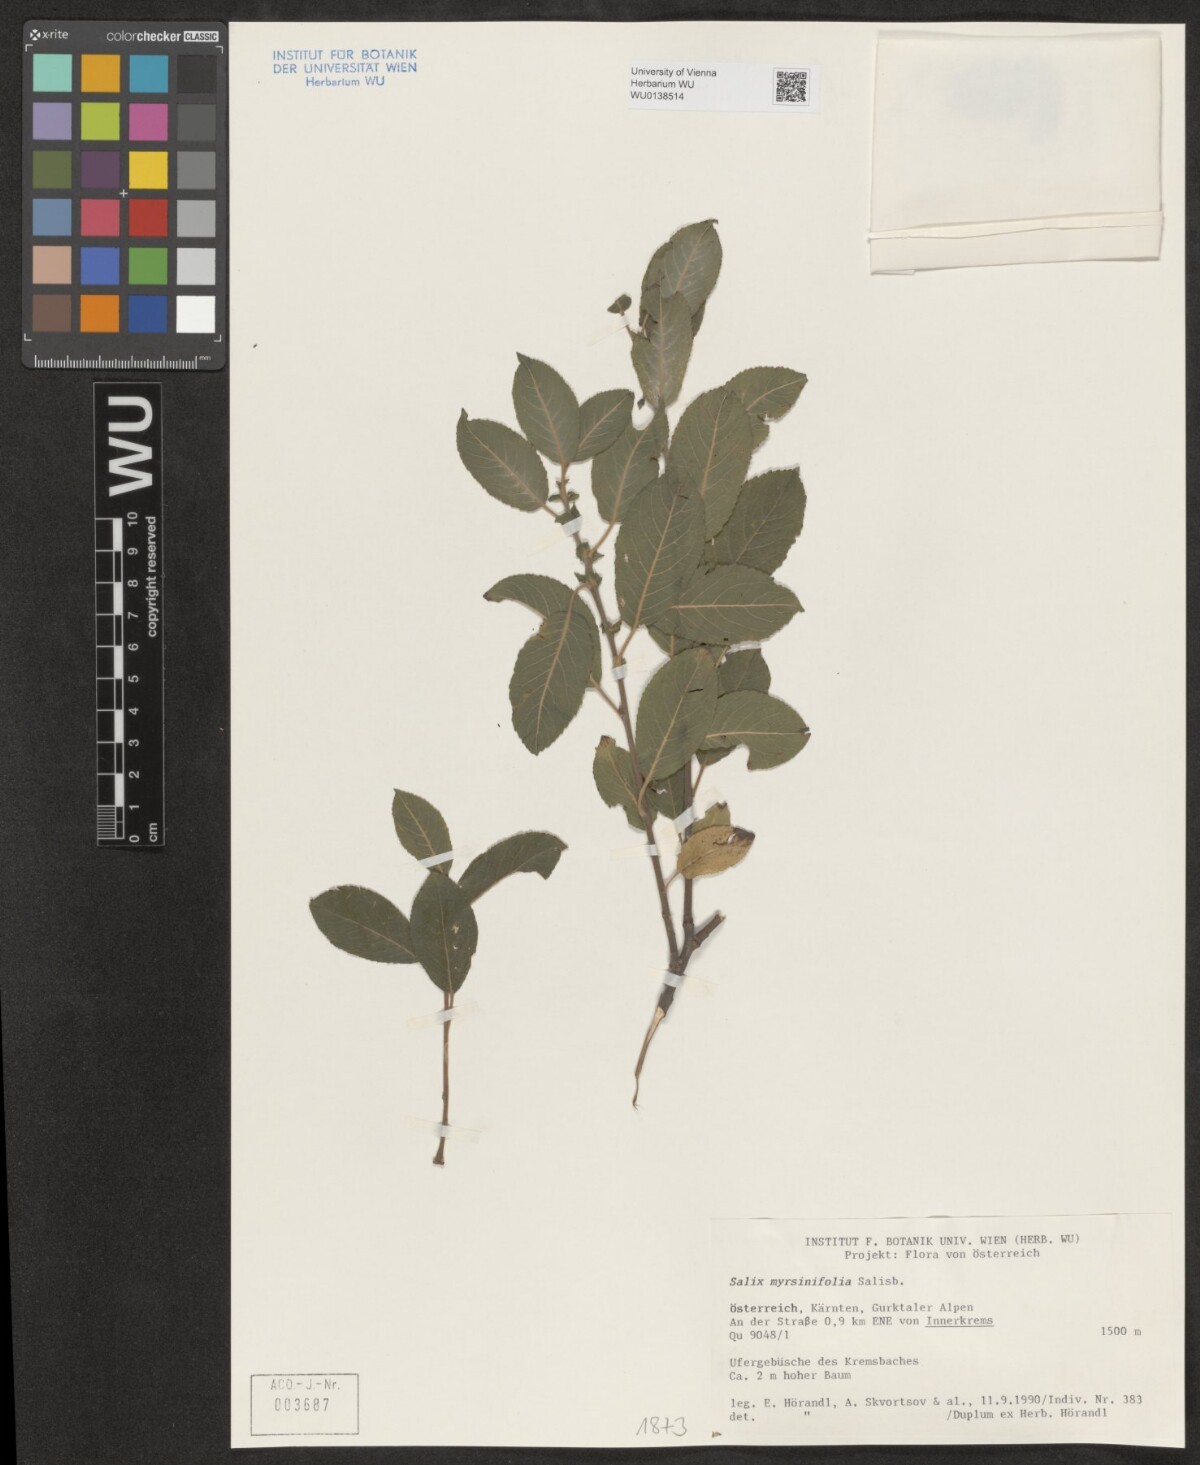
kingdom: Plantae
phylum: Tracheophyta
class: Magnoliopsida
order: Malpighiales
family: Salicaceae
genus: Salix
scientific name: Salix myrsinifolia
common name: Dark-leaved willow
